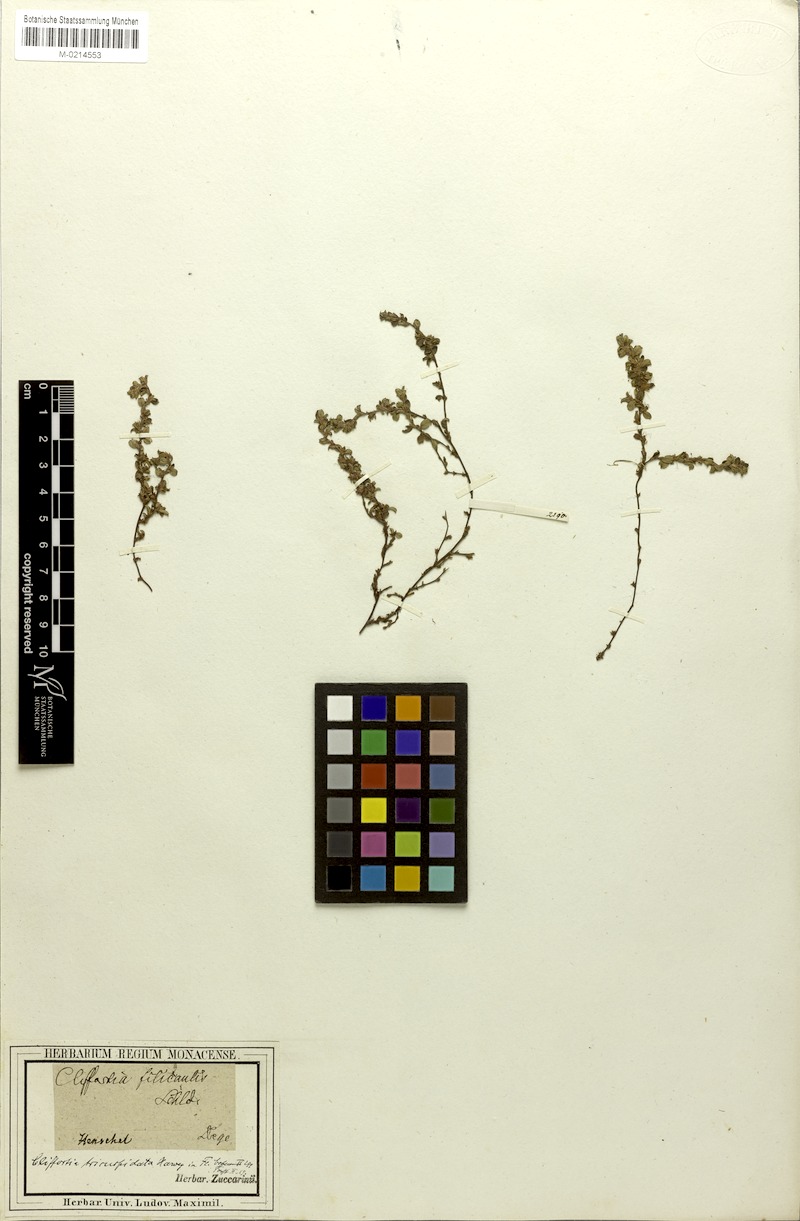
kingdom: Plantae
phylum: Tracheophyta
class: Magnoliopsida
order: Rosales
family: Rosaceae
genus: Cliffortia
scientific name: Cliffortia tricuspidata
